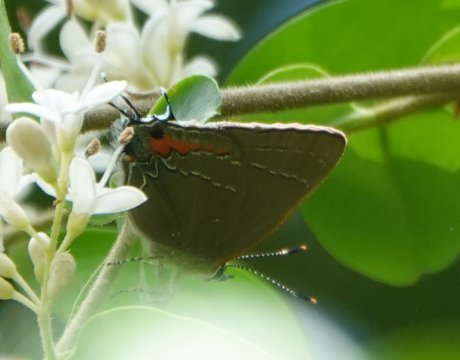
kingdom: Animalia
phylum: Arthropoda
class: Insecta
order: Lepidoptera
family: Lycaenidae
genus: Fixsenia
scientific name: Fixsenia favonius
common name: Oak Hairstreak
